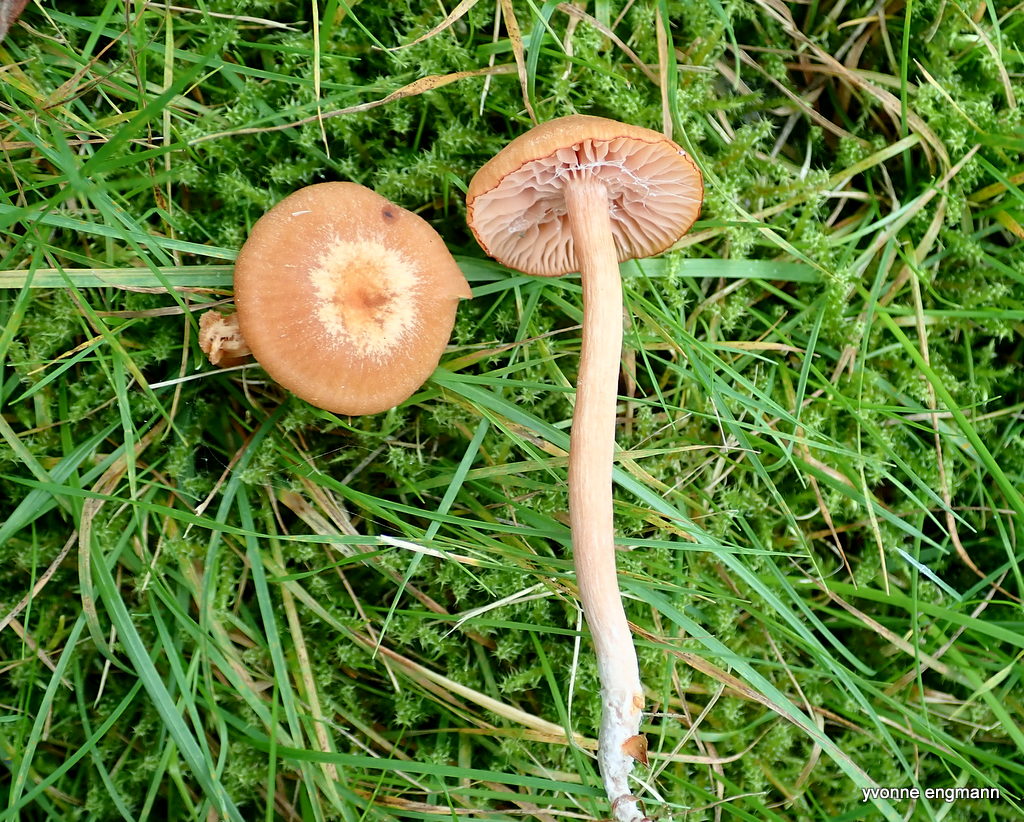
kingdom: Fungi
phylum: Basidiomycota
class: Agaricomycetes
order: Agaricales
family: Hydnangiaceae
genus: Laccaria
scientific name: Laccaria laccata
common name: rød ametysthat
